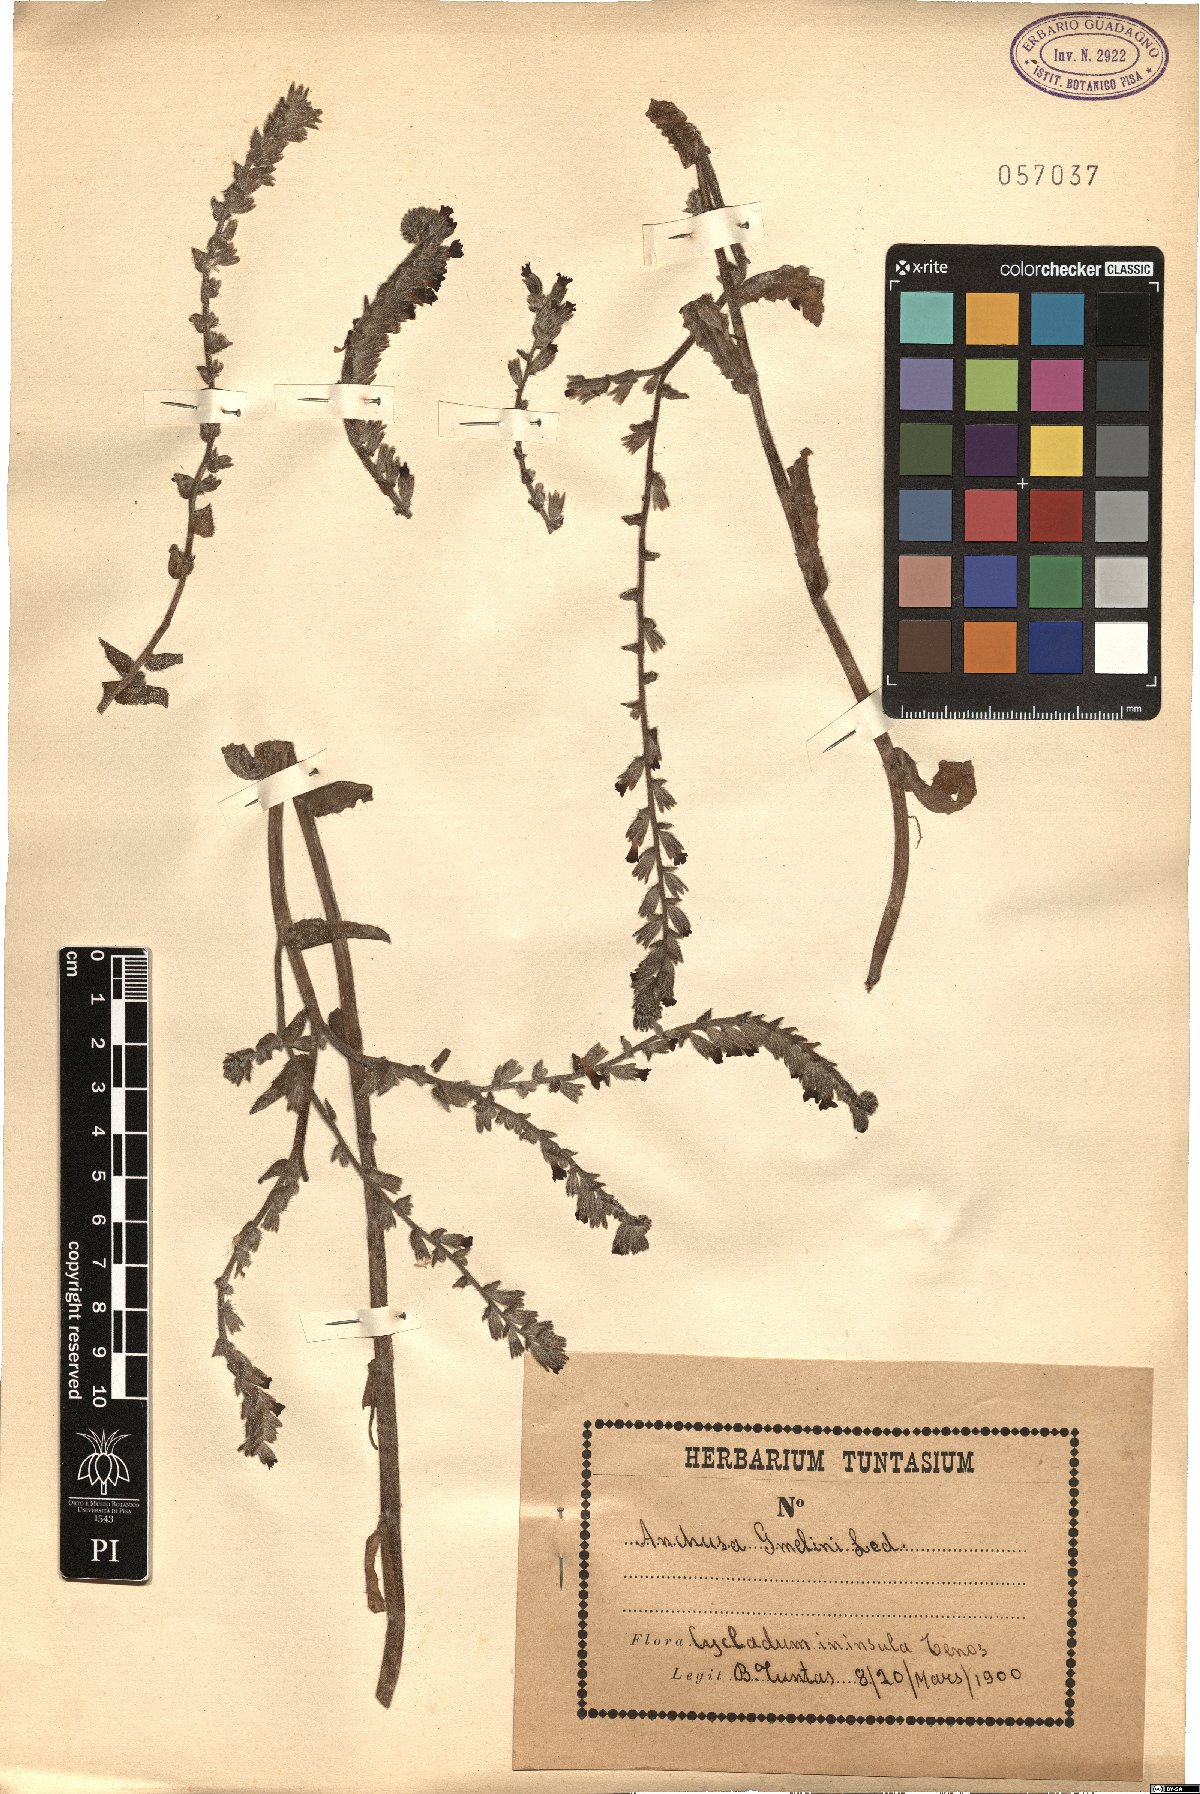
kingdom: Plantae
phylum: Tracheophyta
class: Magnoliopsida
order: Boraginales
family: Boraginaceae
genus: Anchusa
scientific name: Anchusa gmelinii
